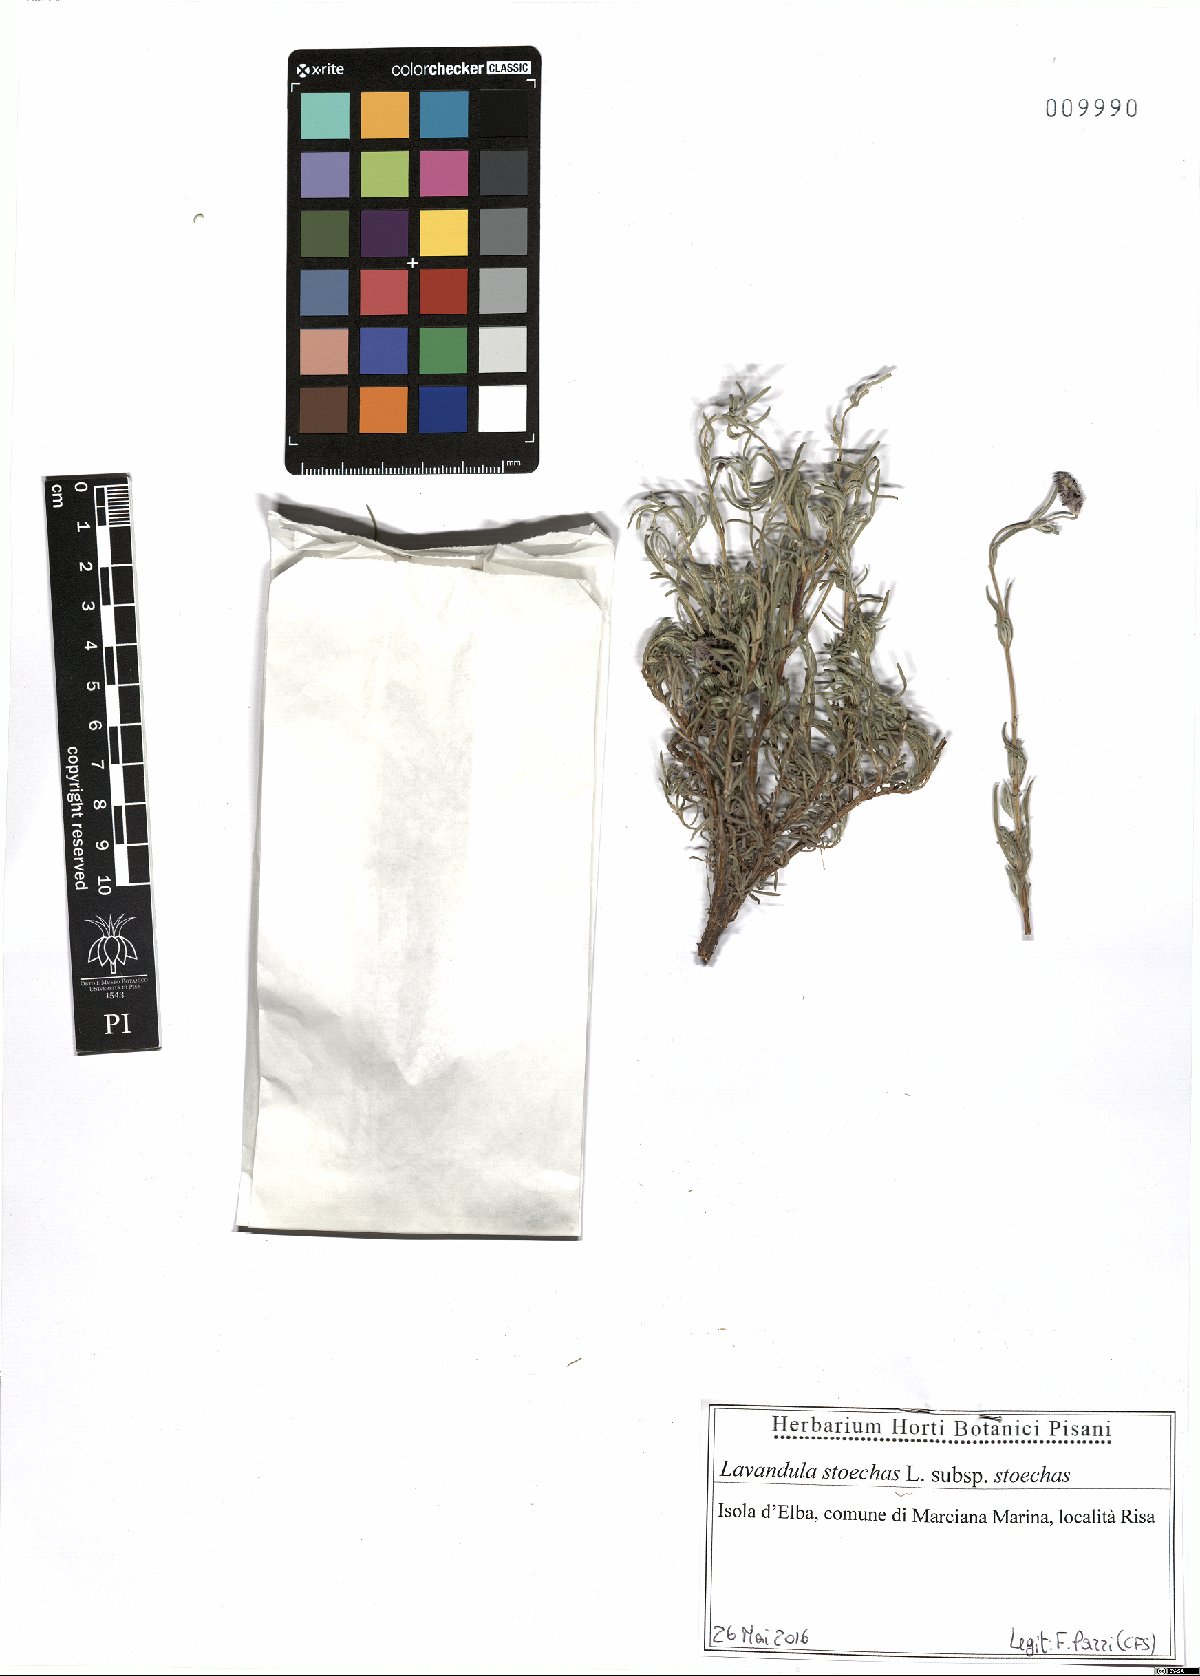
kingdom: Plantae
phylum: Tracheophyta
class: Magnoliopsida
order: Lamiales
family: Lamiaceae
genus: Lavandula
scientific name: Lavandula stoechas
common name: French lavender
